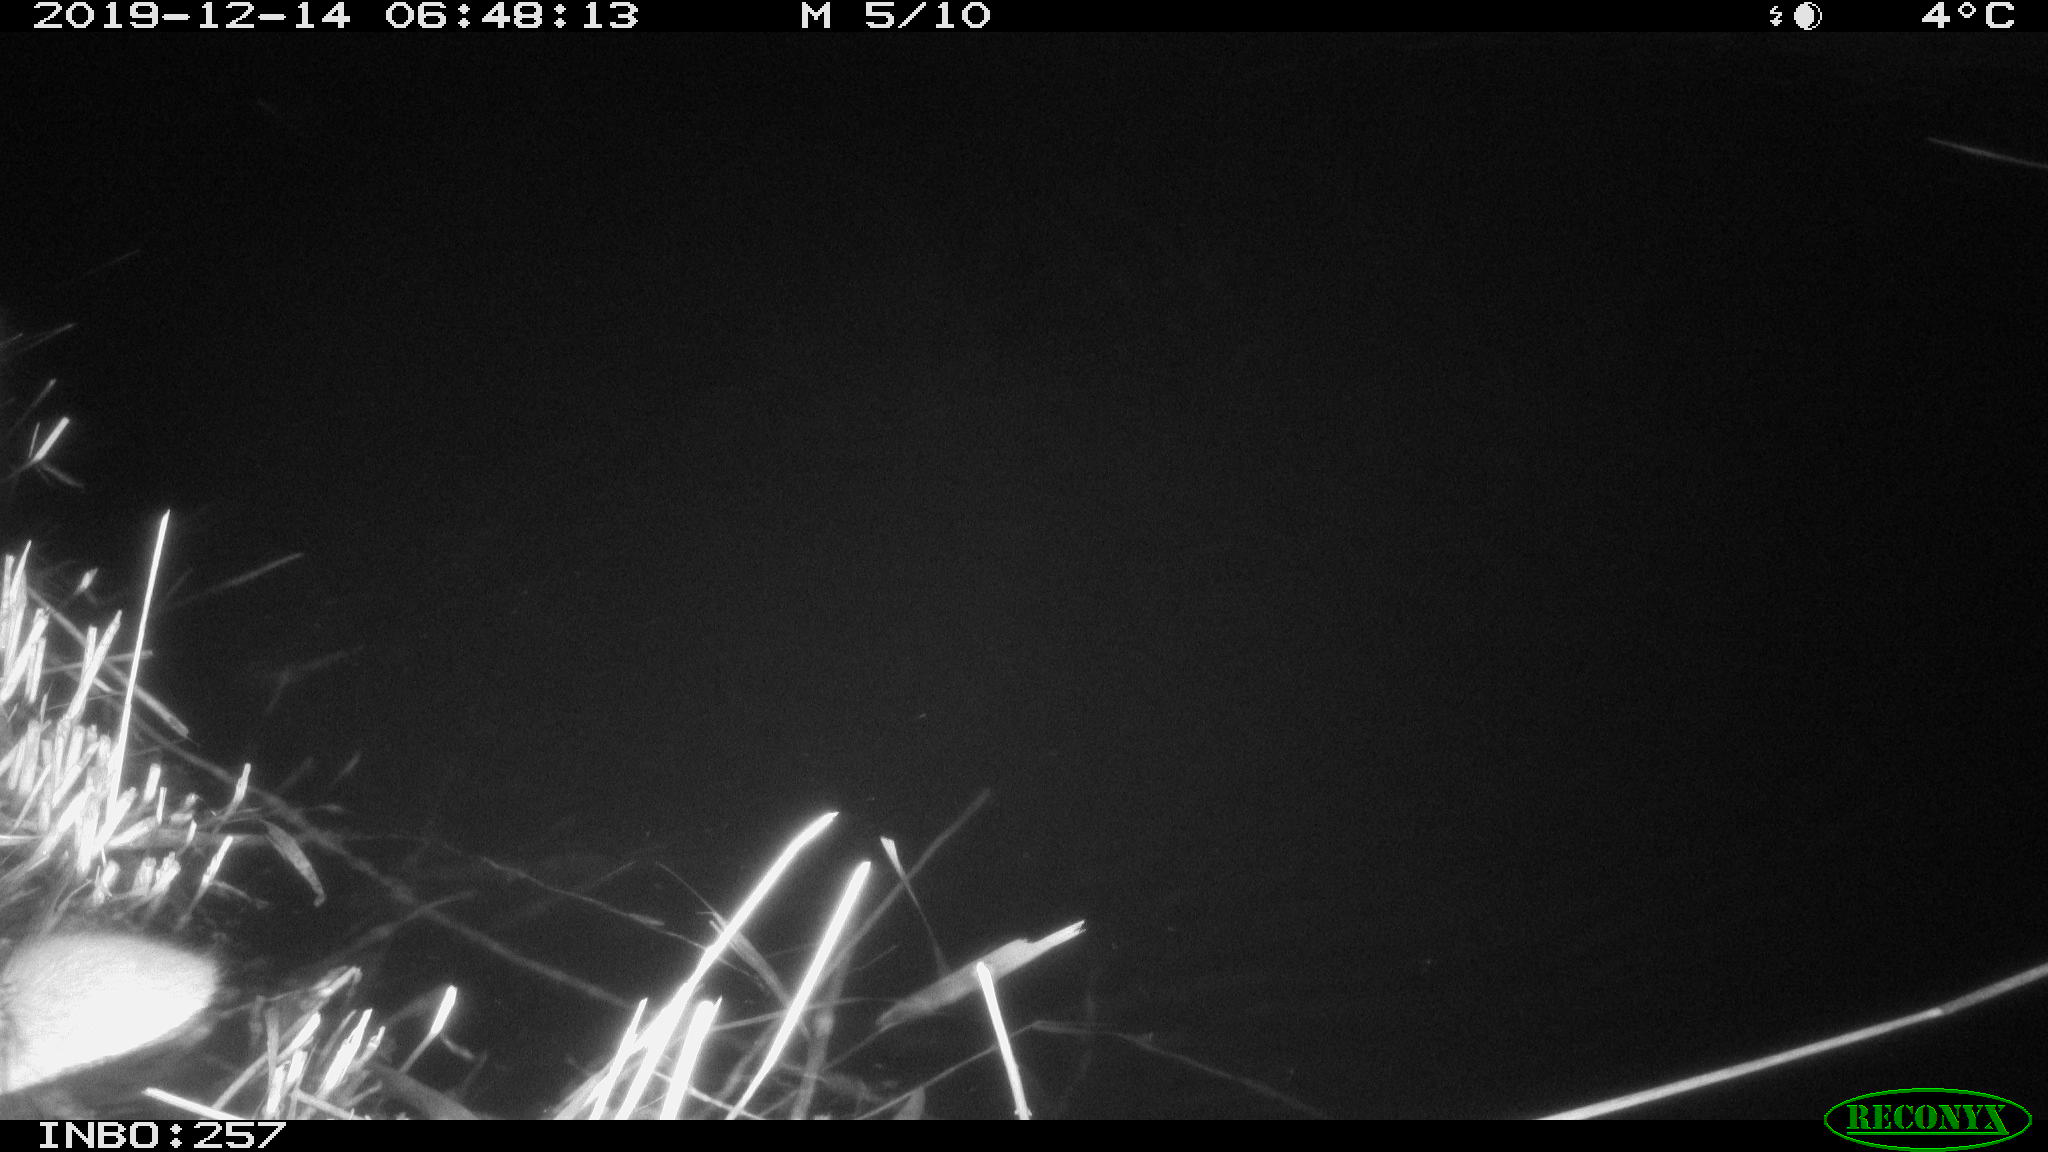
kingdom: Animalia
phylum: Chordata
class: Mammalia
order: Rodentia
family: Muridae
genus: Rattus
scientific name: Rattus norvegicus
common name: Brown rat
